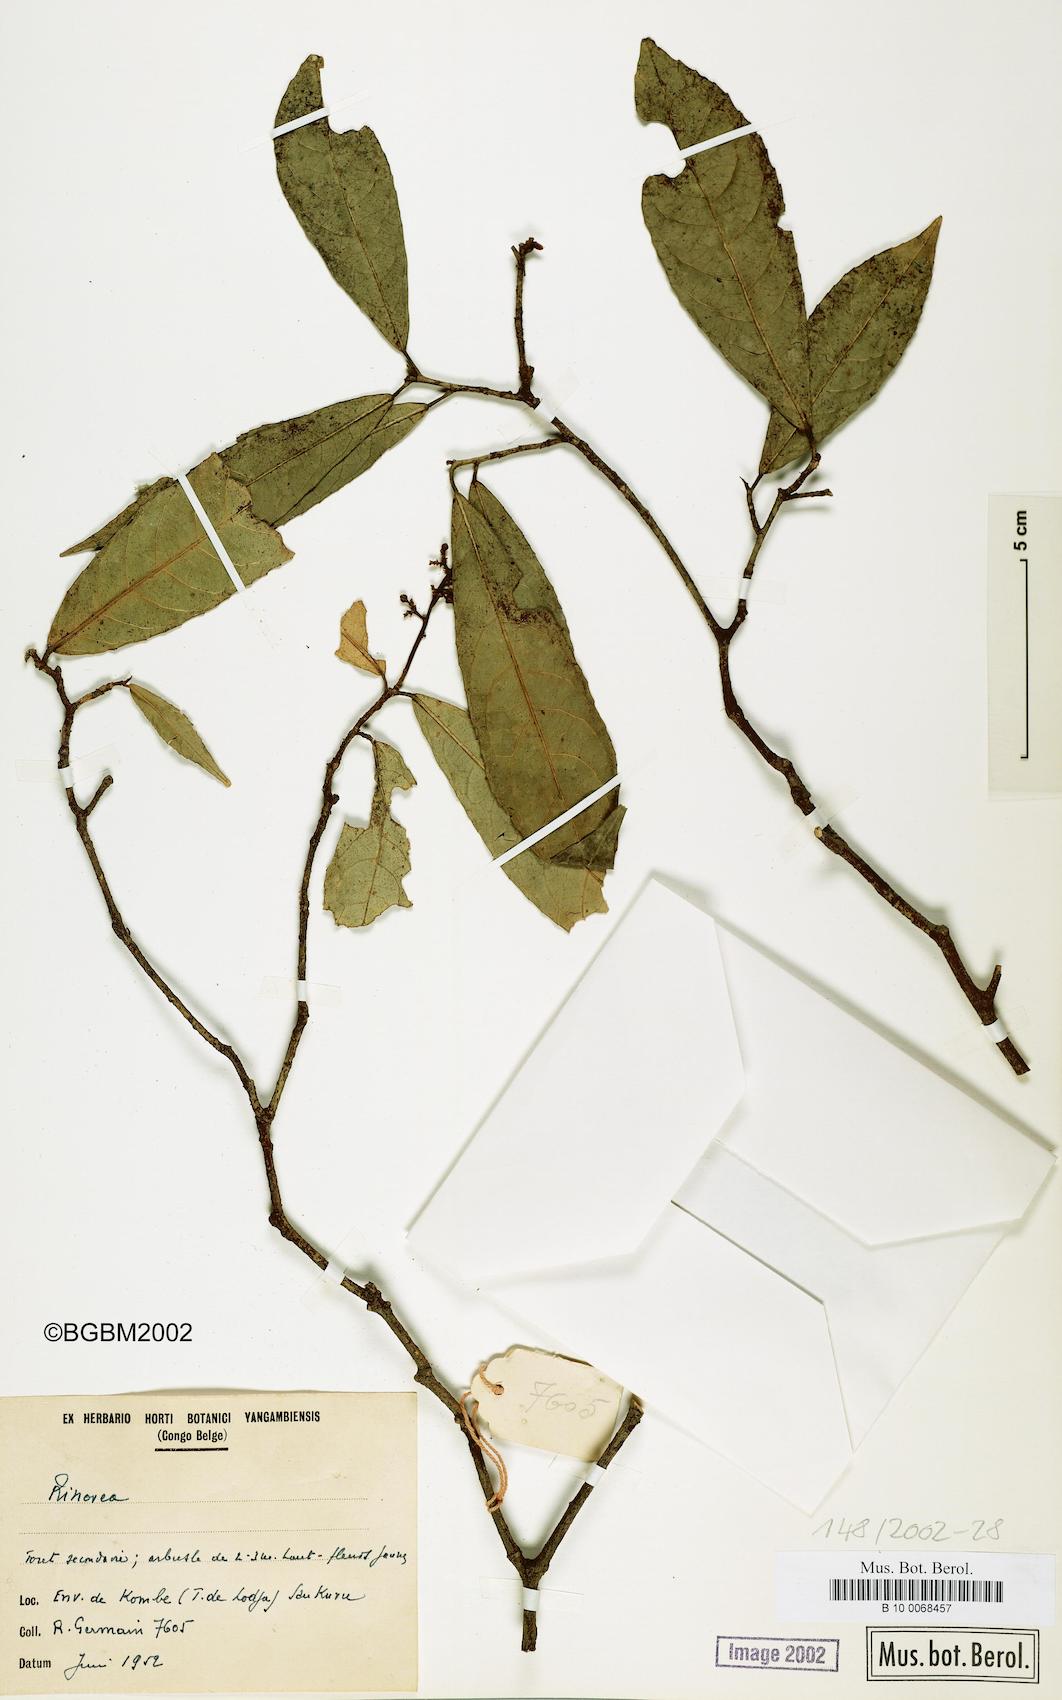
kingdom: Plantae
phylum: Tracheophyta
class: Magnoliopsida
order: Malpighiales
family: Violaceae
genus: Rinorea
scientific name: Rinorea
